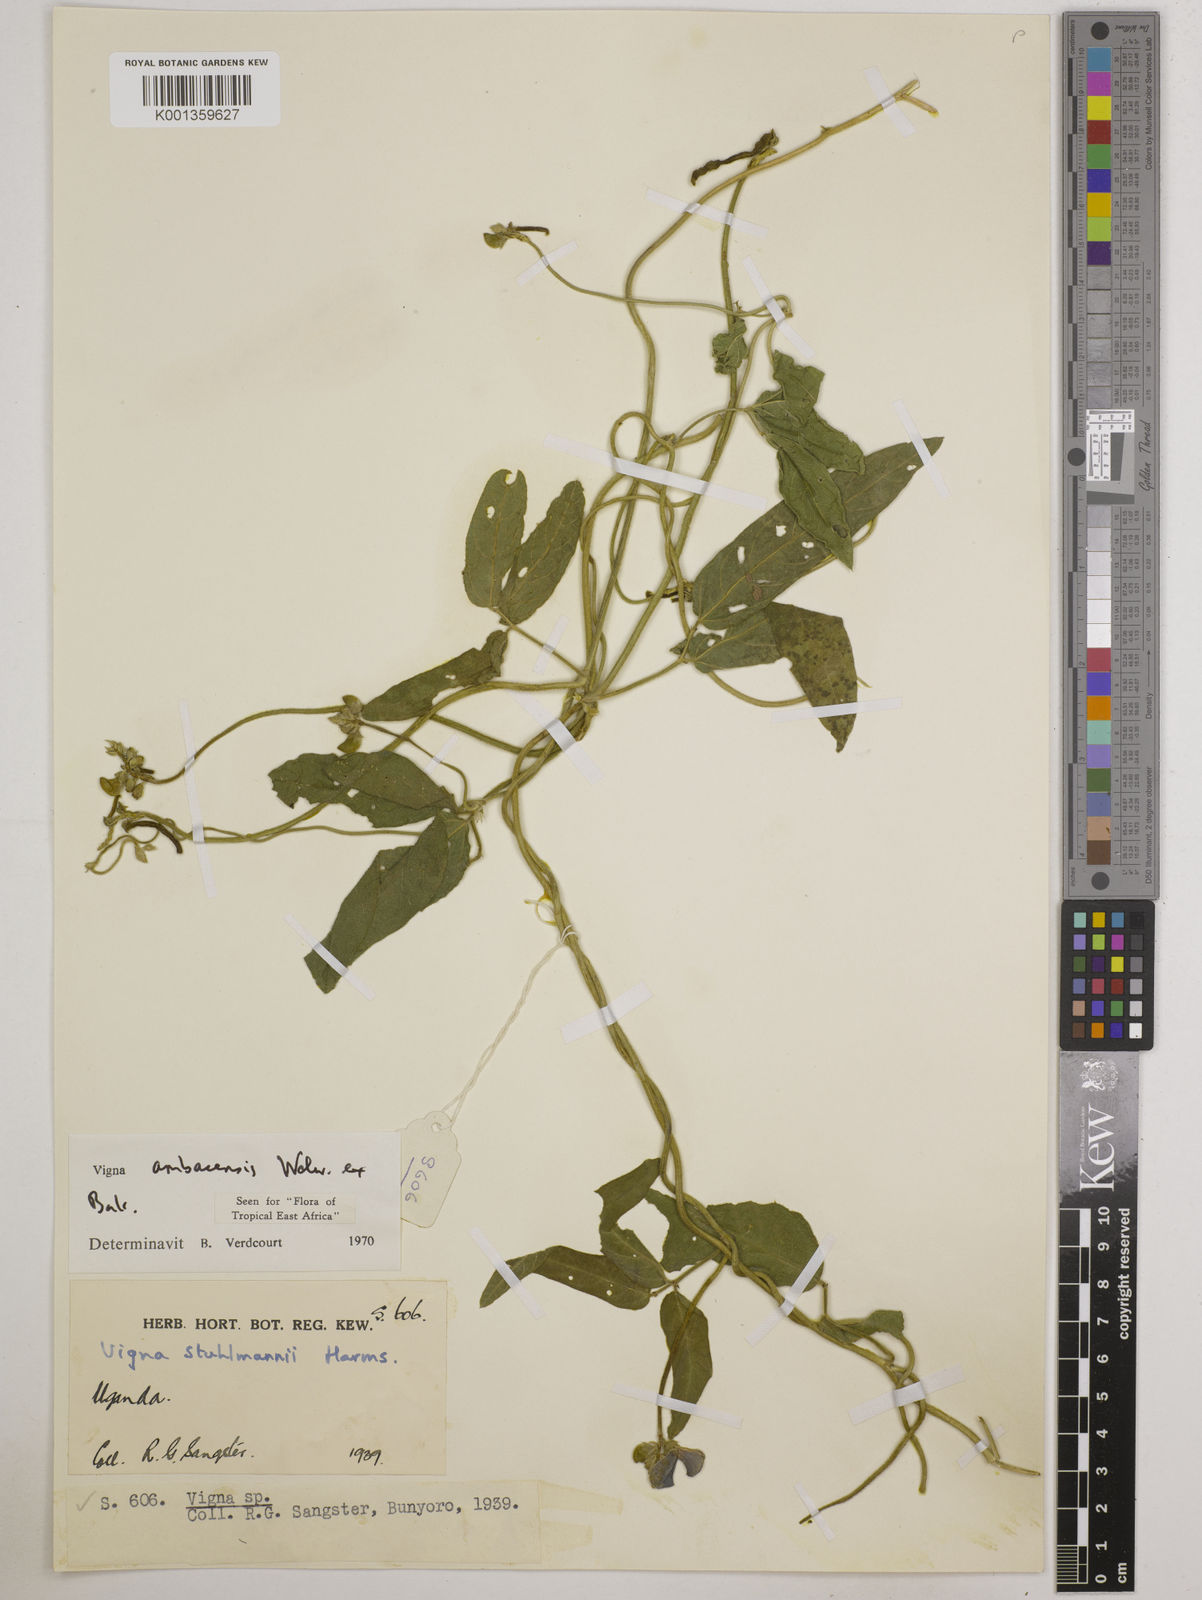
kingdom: Plantae
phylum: Tracheophyta
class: Magnoliopsida
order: Fabales
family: Fabaceae
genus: Vigna
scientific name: Vigna ambacensis
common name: Tsarkiyan zomo
